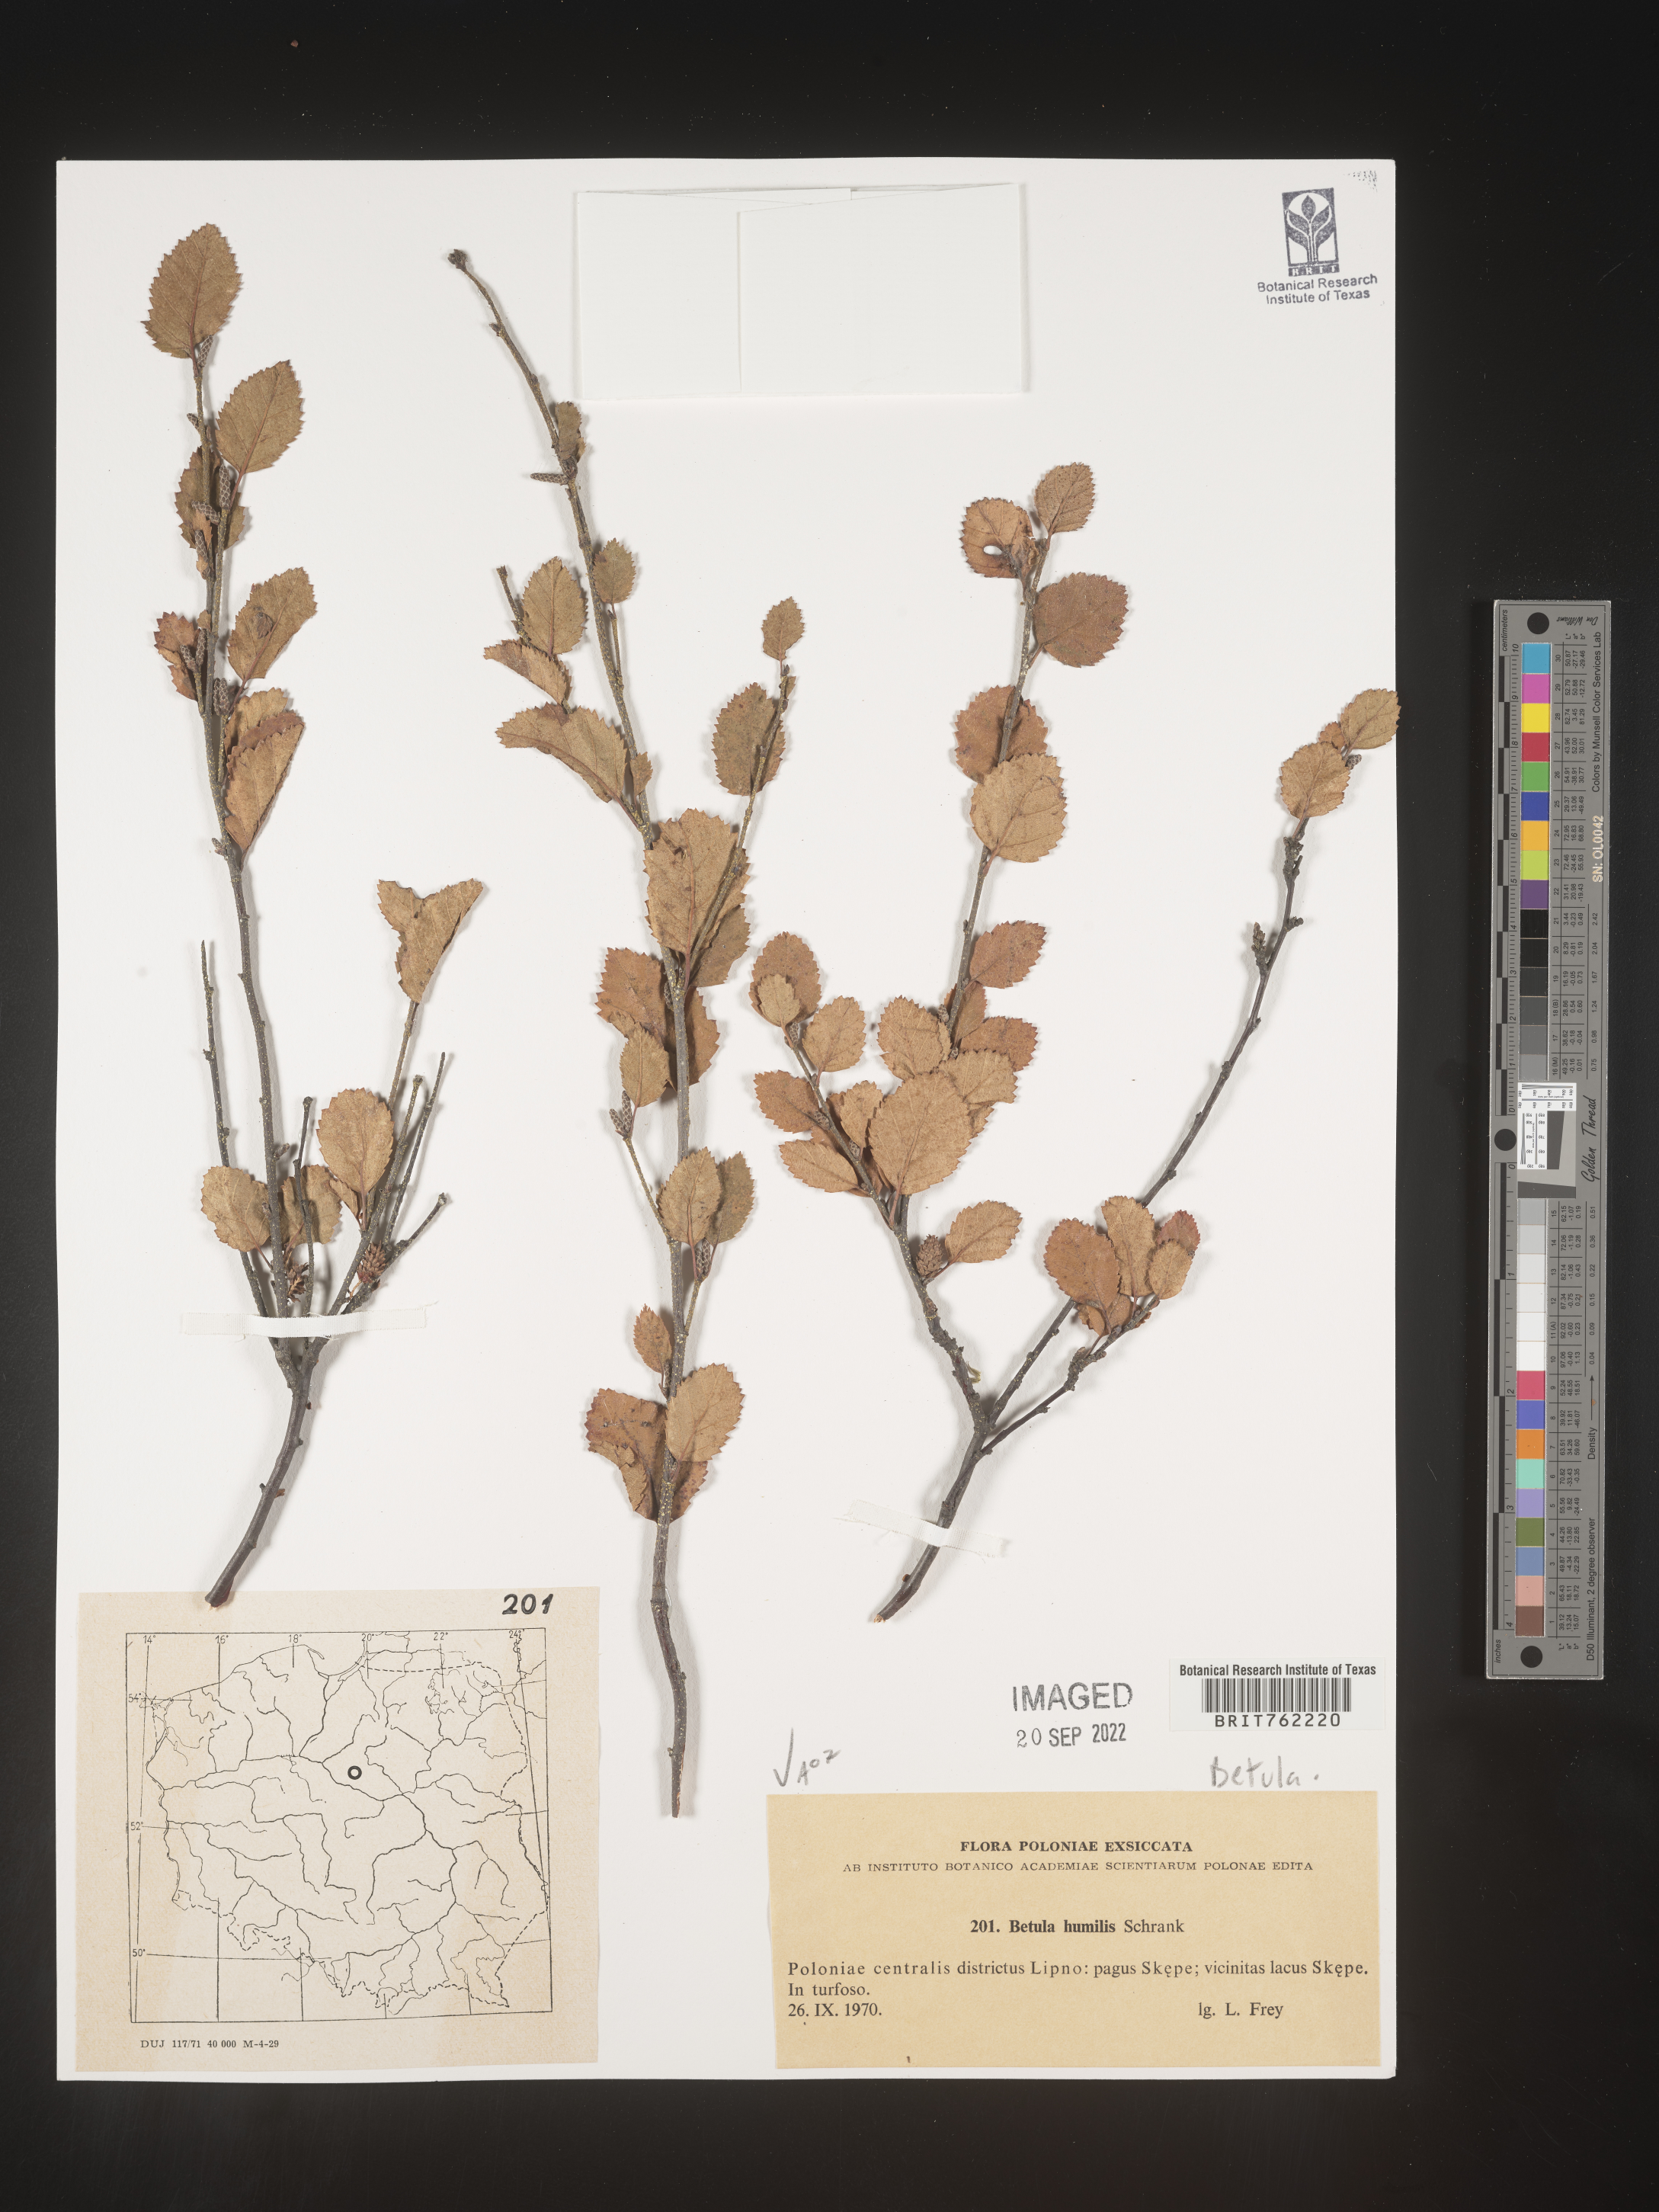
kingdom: Plantae
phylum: Tracheophyta
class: Magnoliopsida
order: Fagales
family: Betulaceae
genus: Betula
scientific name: Betula
